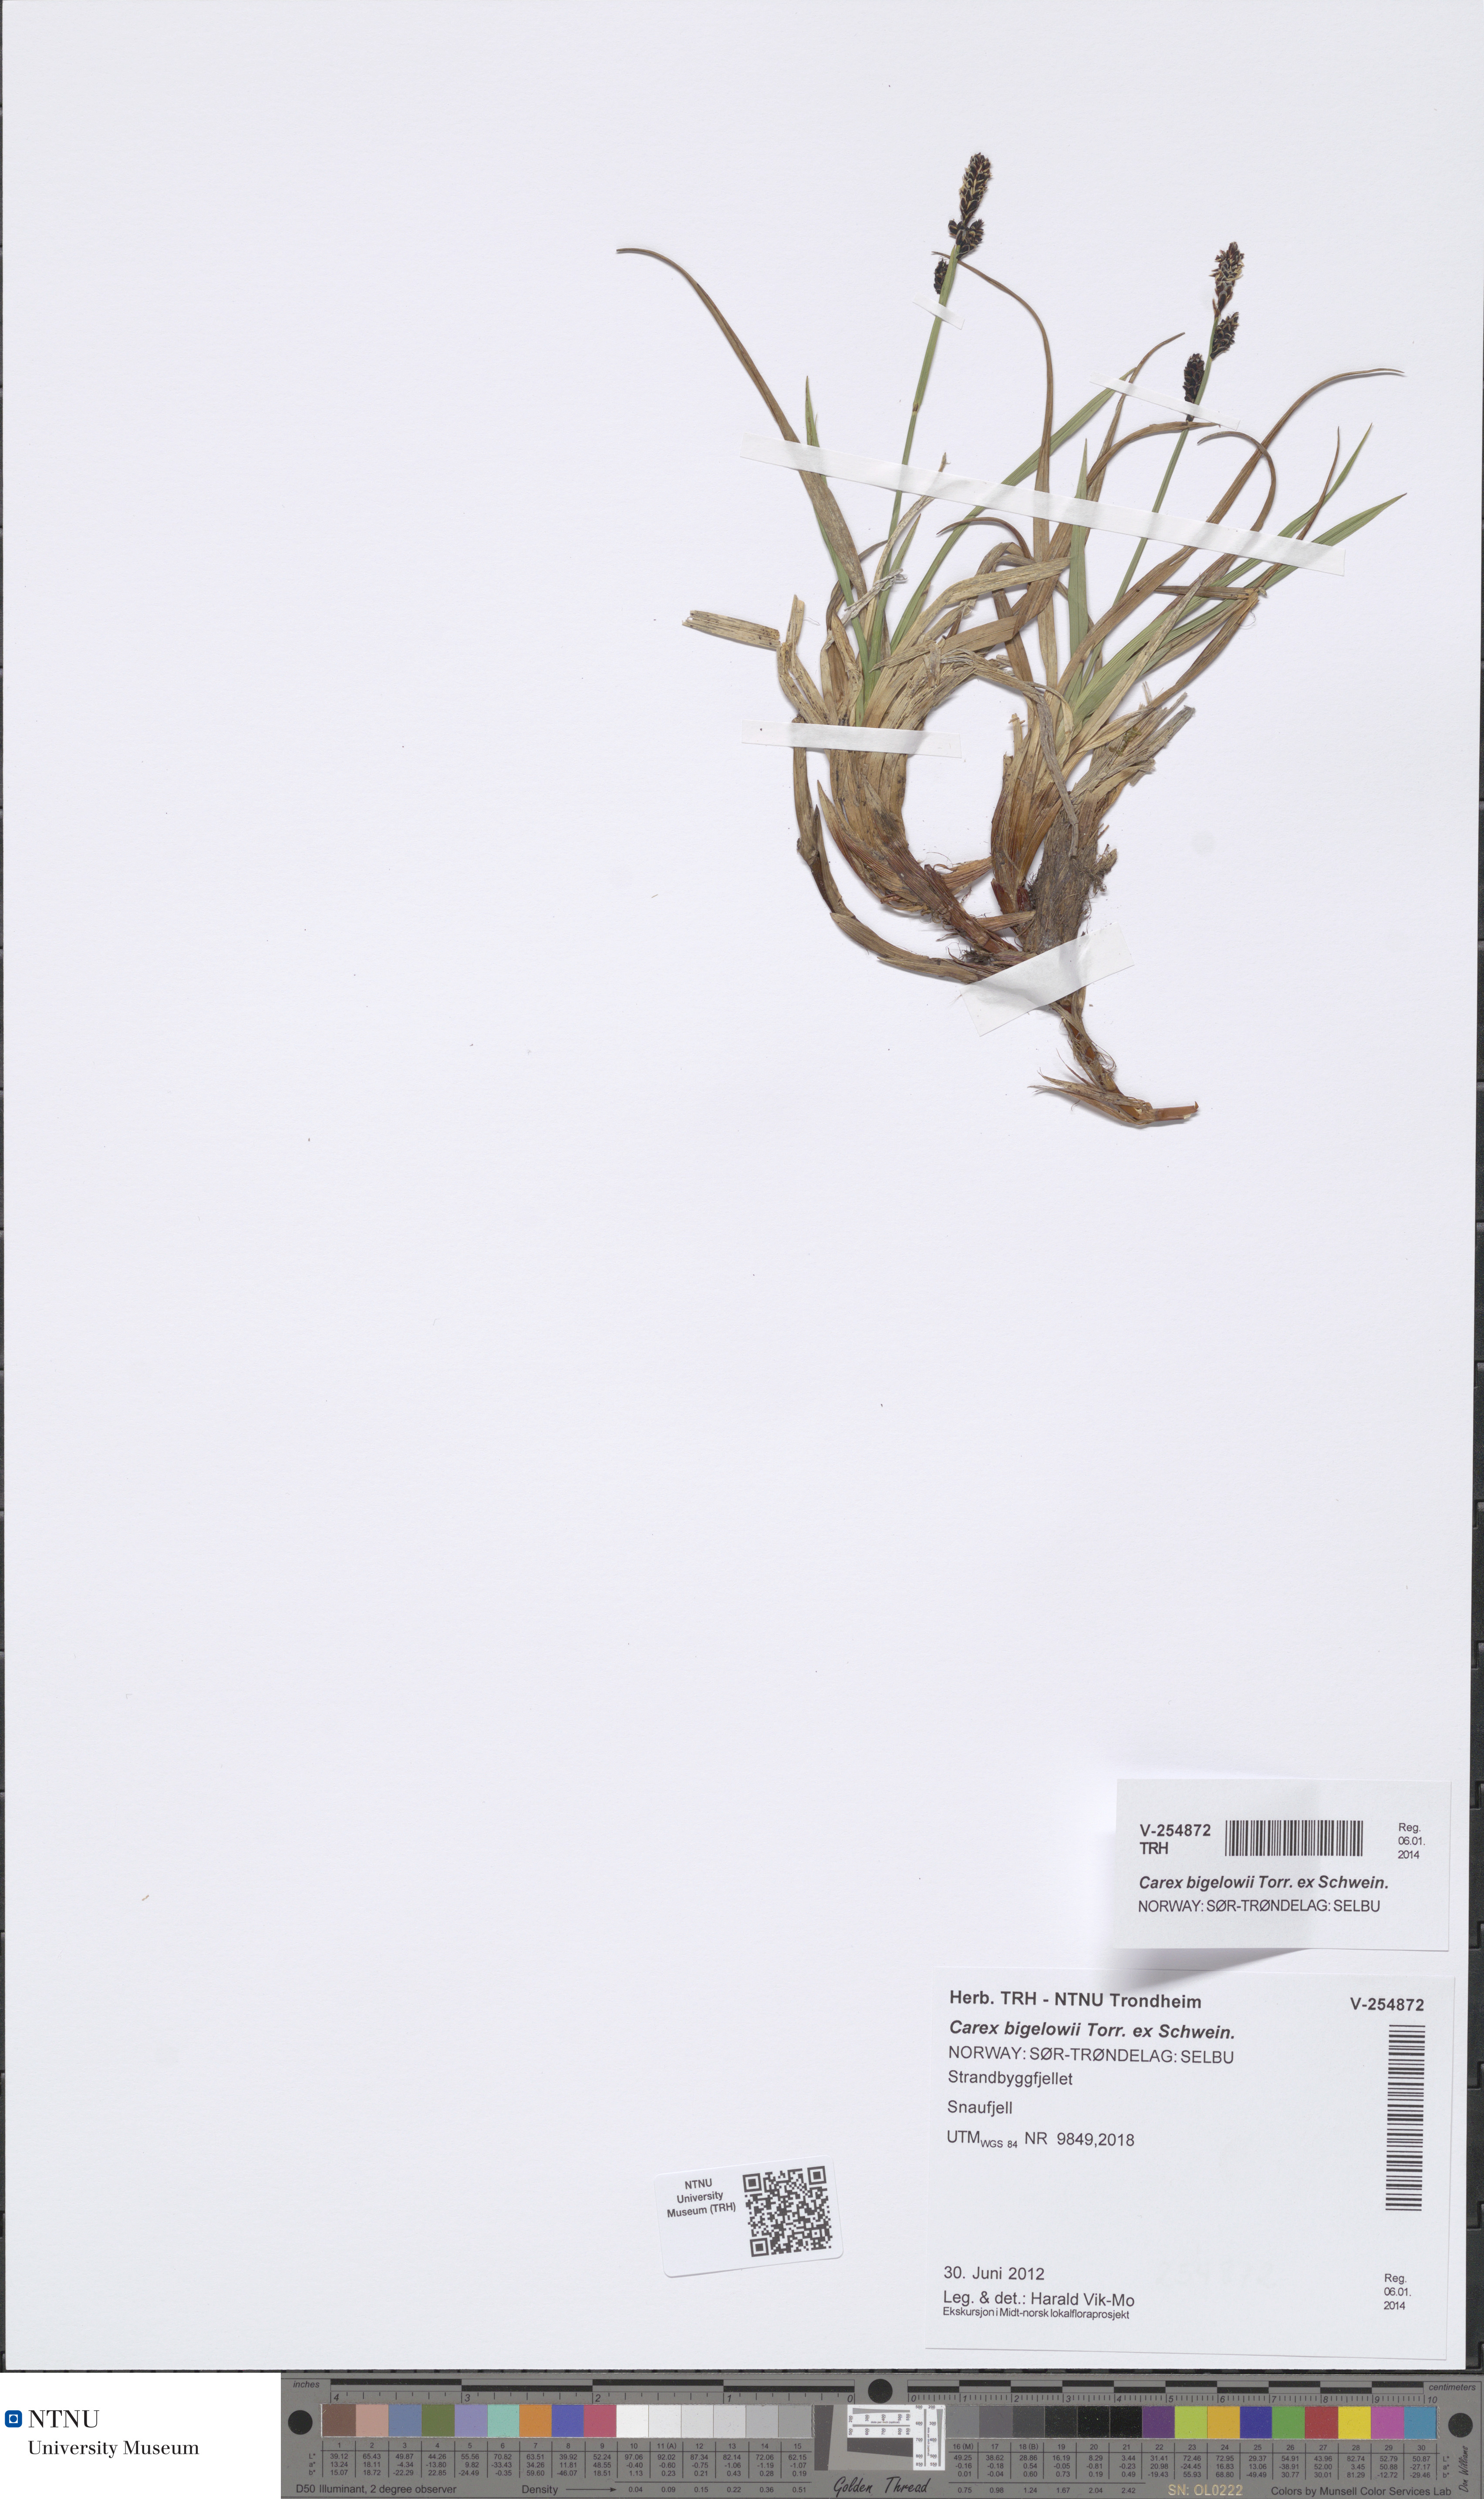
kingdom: Plantae
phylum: Tracheophyta
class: Liliopsida
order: Poales
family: Cyperaceae
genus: Carex
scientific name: Carex bigelowii
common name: Stiff sedge
